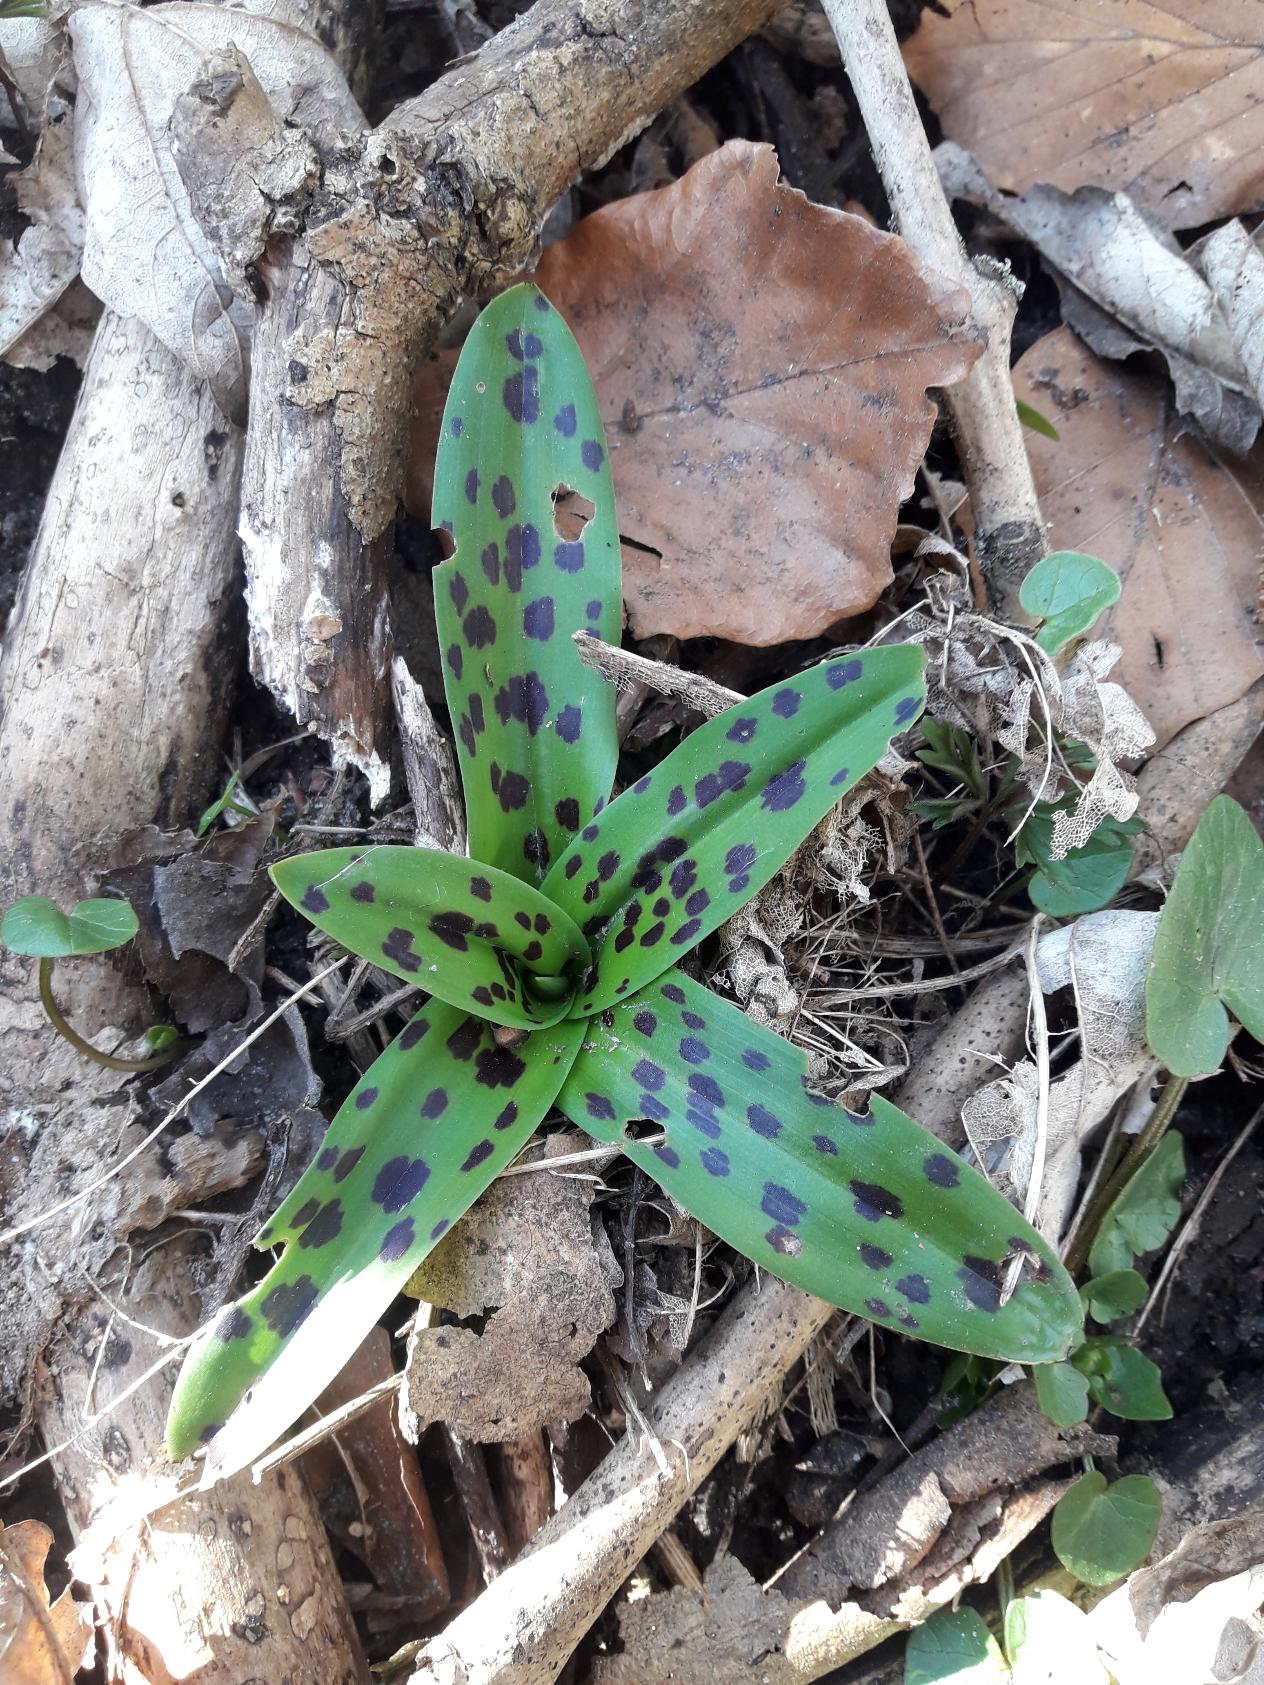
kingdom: Plantae
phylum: Tracheophyta
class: Liliopsida
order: Asparagales
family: Orchidaceae
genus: Orchis
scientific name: Orchis mascula
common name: Tyndakset gøgeurt
